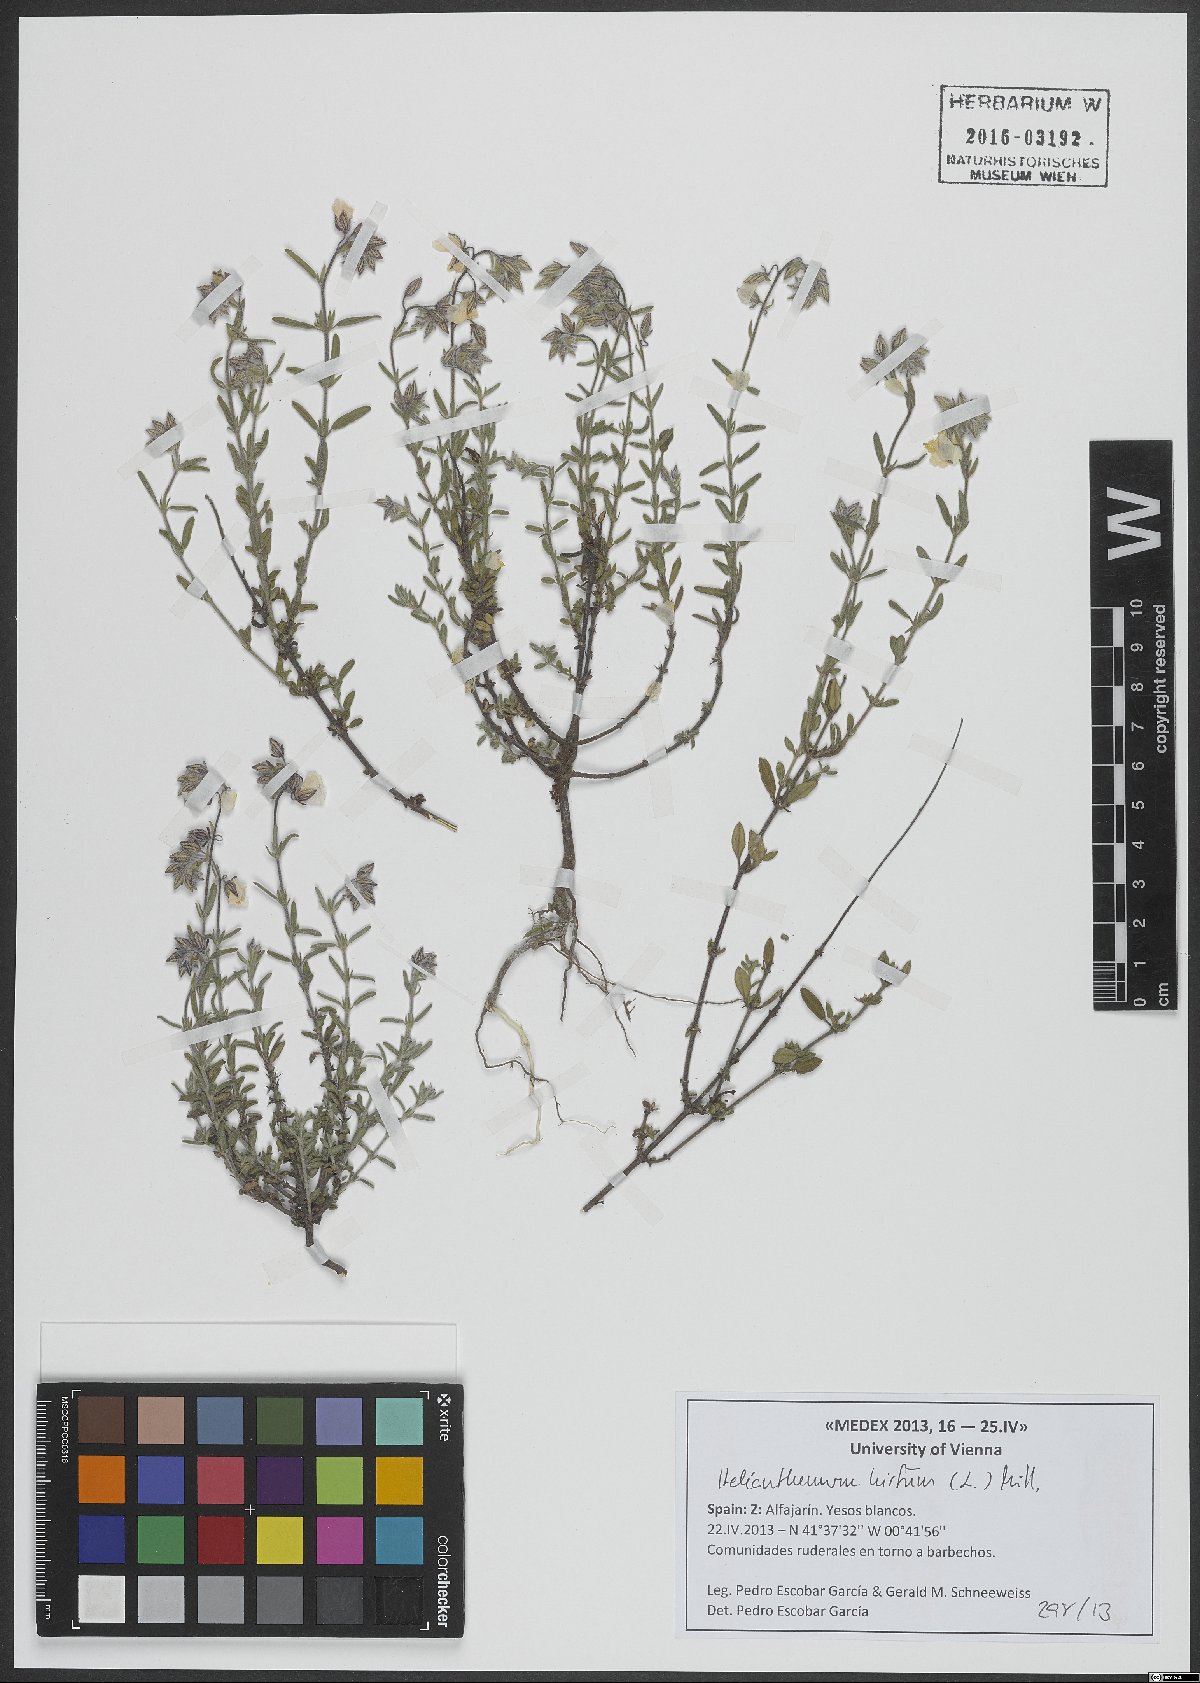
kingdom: Plantae
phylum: Tracheophyta
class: Magnoliopsida
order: Malvales
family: Cistaceae
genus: Helianthemum
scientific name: Helianthemum hirtum
